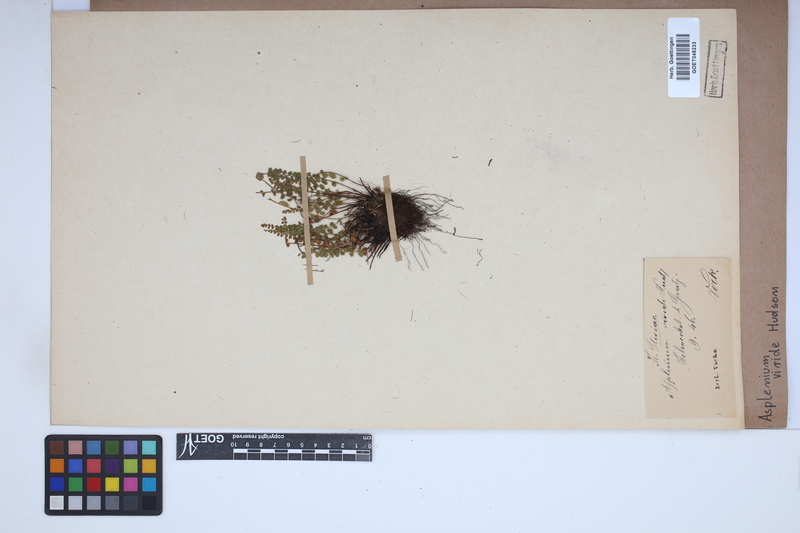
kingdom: Plantae
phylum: Tracheophyta
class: Polypodiopsida
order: Polypodiales
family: Aspleniaceae
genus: Asplenium
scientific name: Asplenium viride
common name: Green spleenwort
